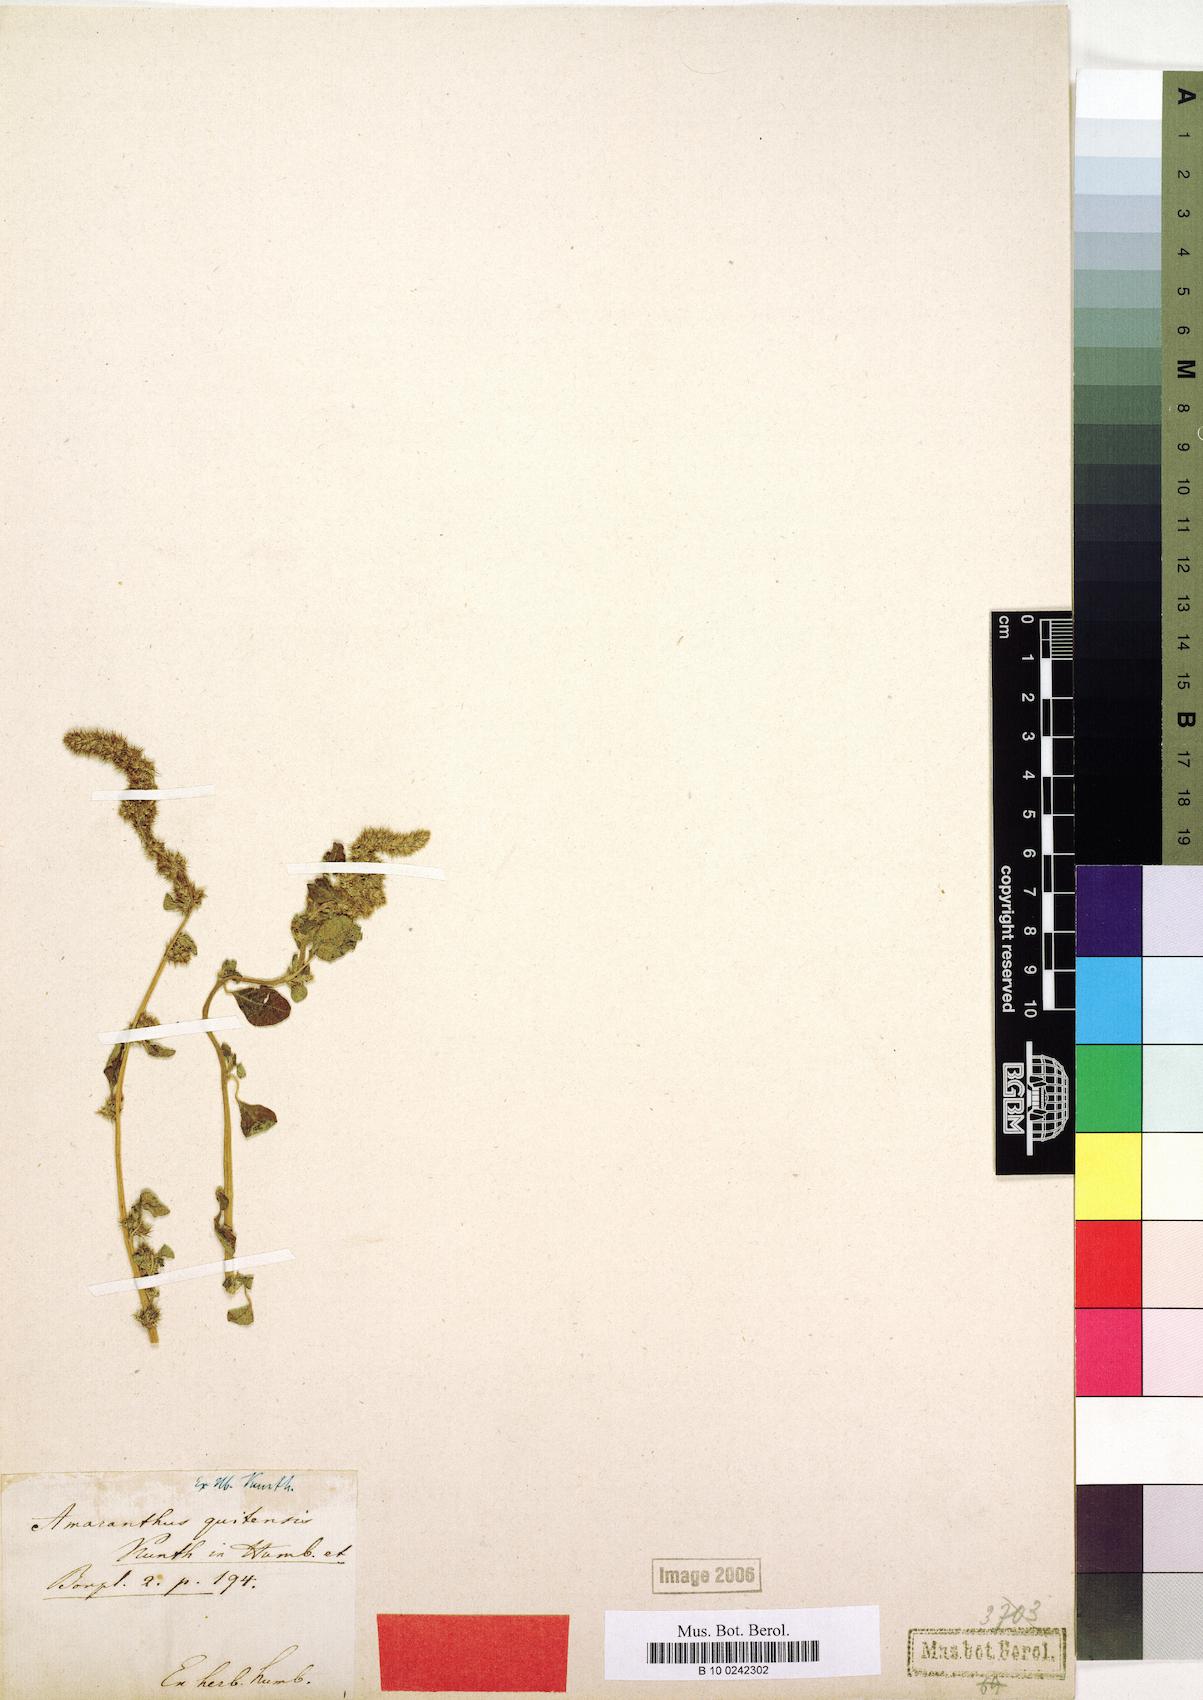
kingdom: Plantae
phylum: Tracheophyta
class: Magnoliopsida
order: Caryophyllales
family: Amaranthaceae
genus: Amaranthus
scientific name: Amaranthus quitensis
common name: Mucronate amaranth
